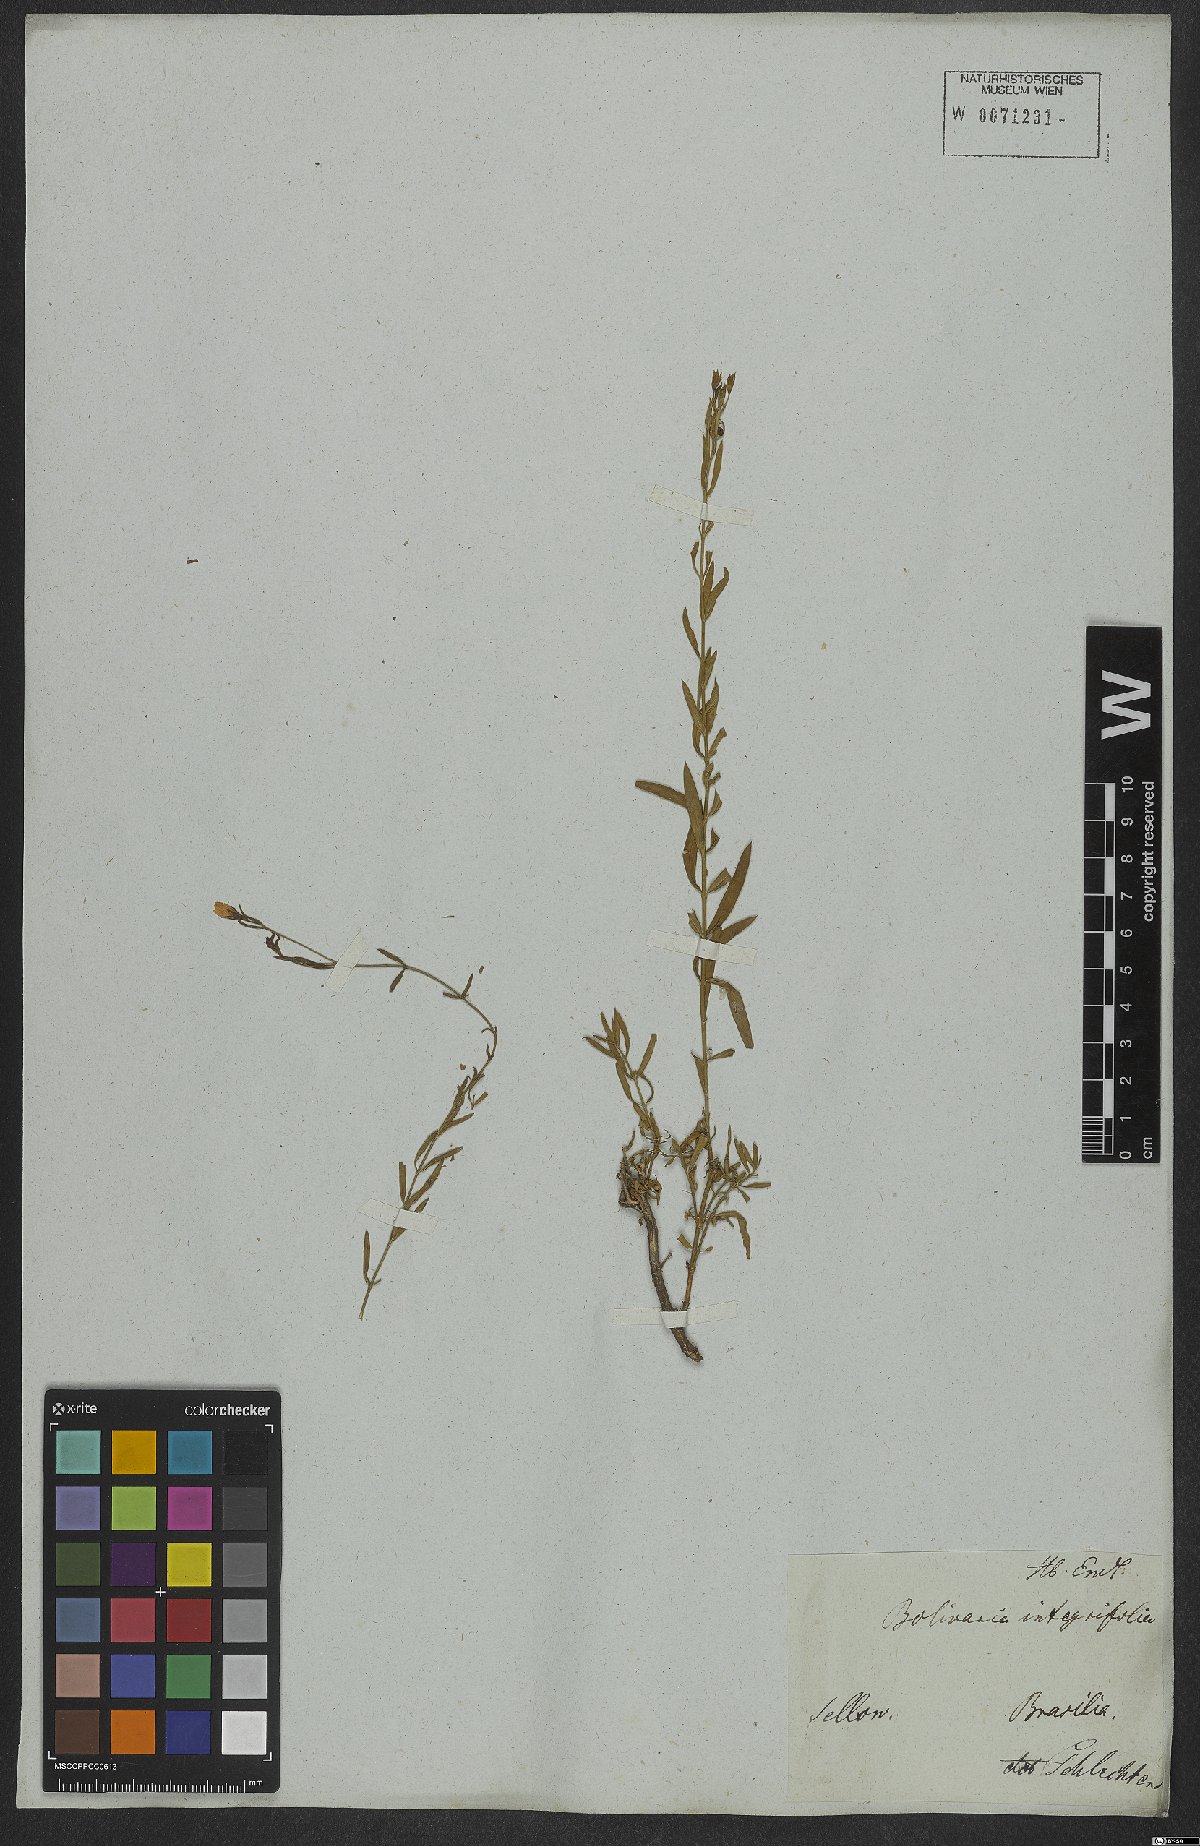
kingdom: Plantae
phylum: Tracheophyta
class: Magnoliopsida
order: Lamiales
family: Oleaceae
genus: Menodora
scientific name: Menodora integrifolia
